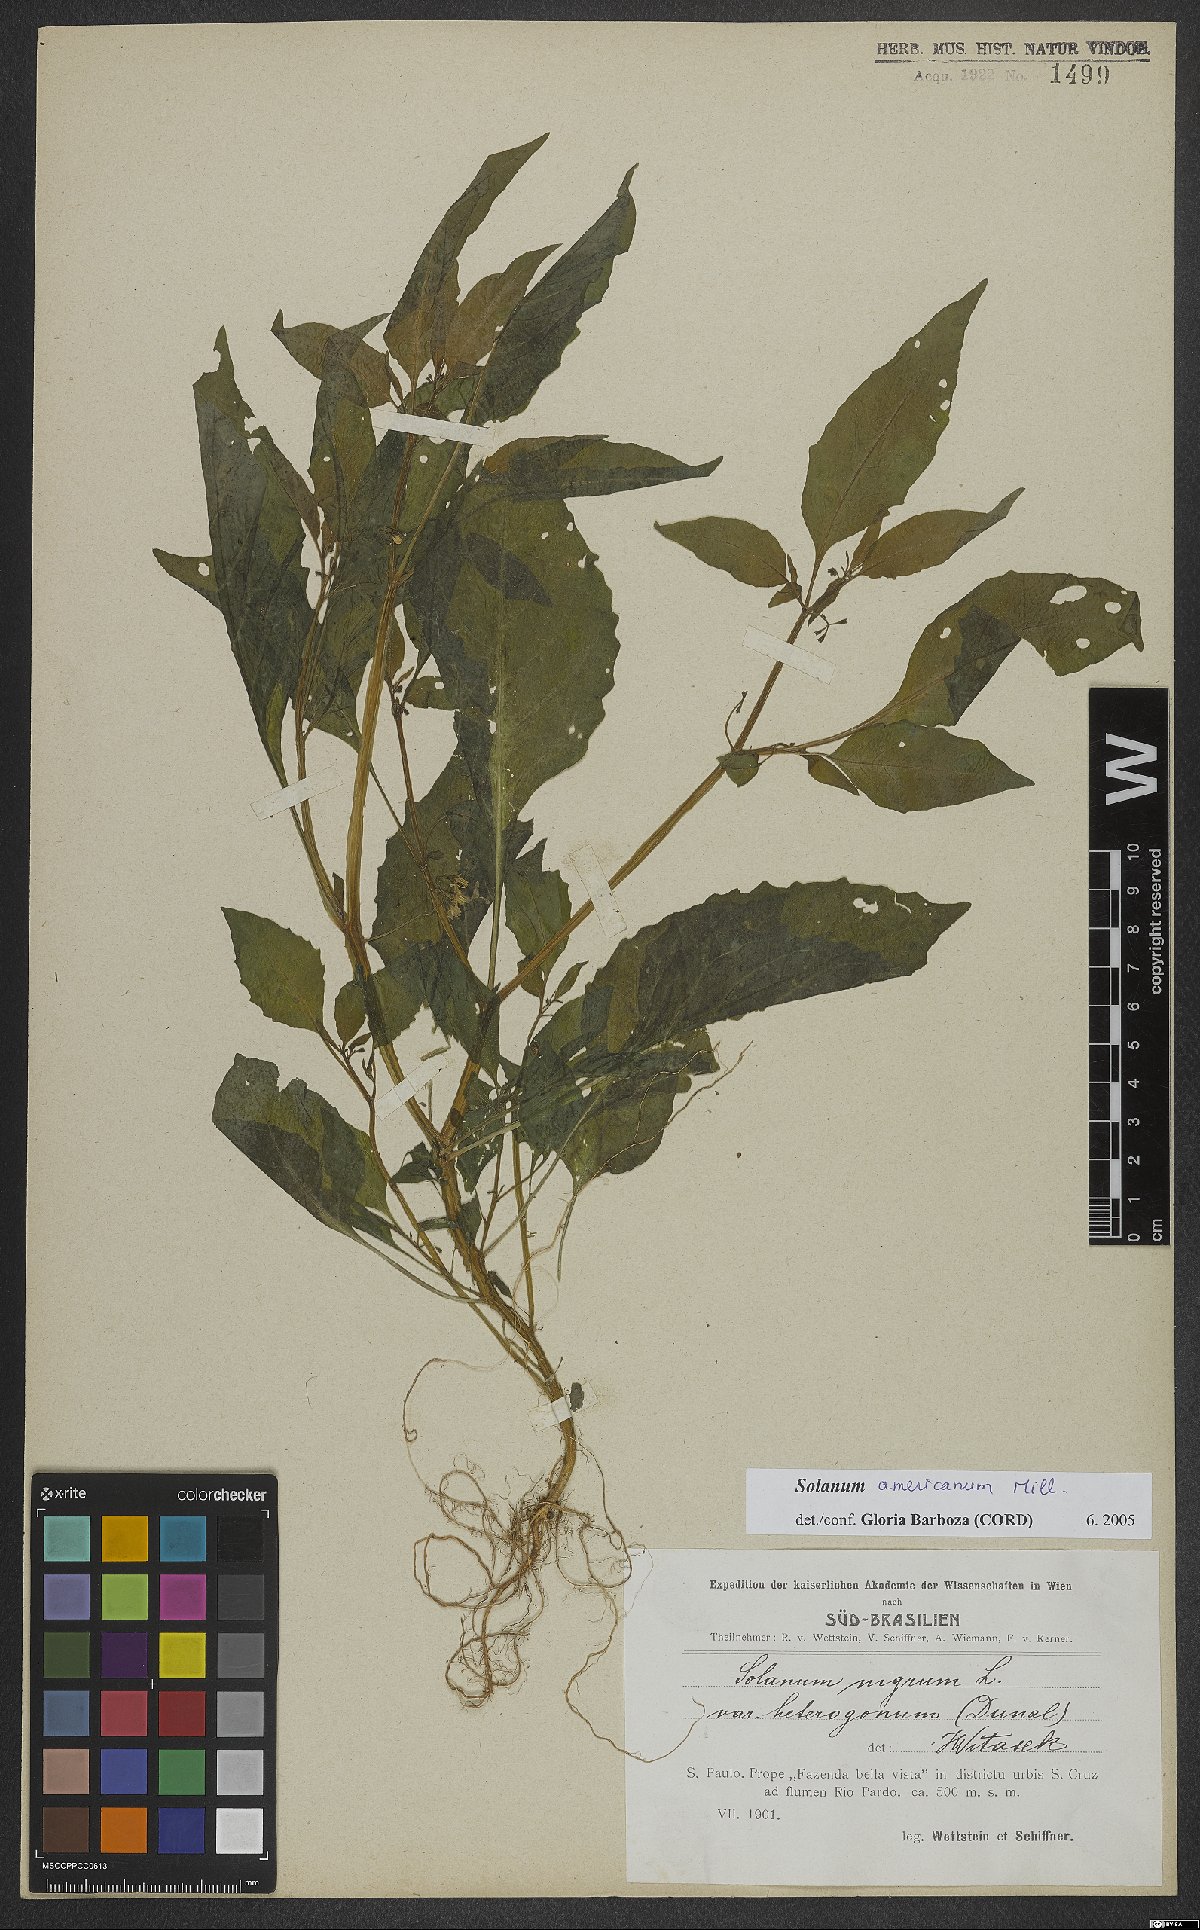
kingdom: Plantae
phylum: Tracheophyta
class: Magnoliopsida
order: Solanales
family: Solanaceae
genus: Solanum
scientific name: Solanum paucidens
